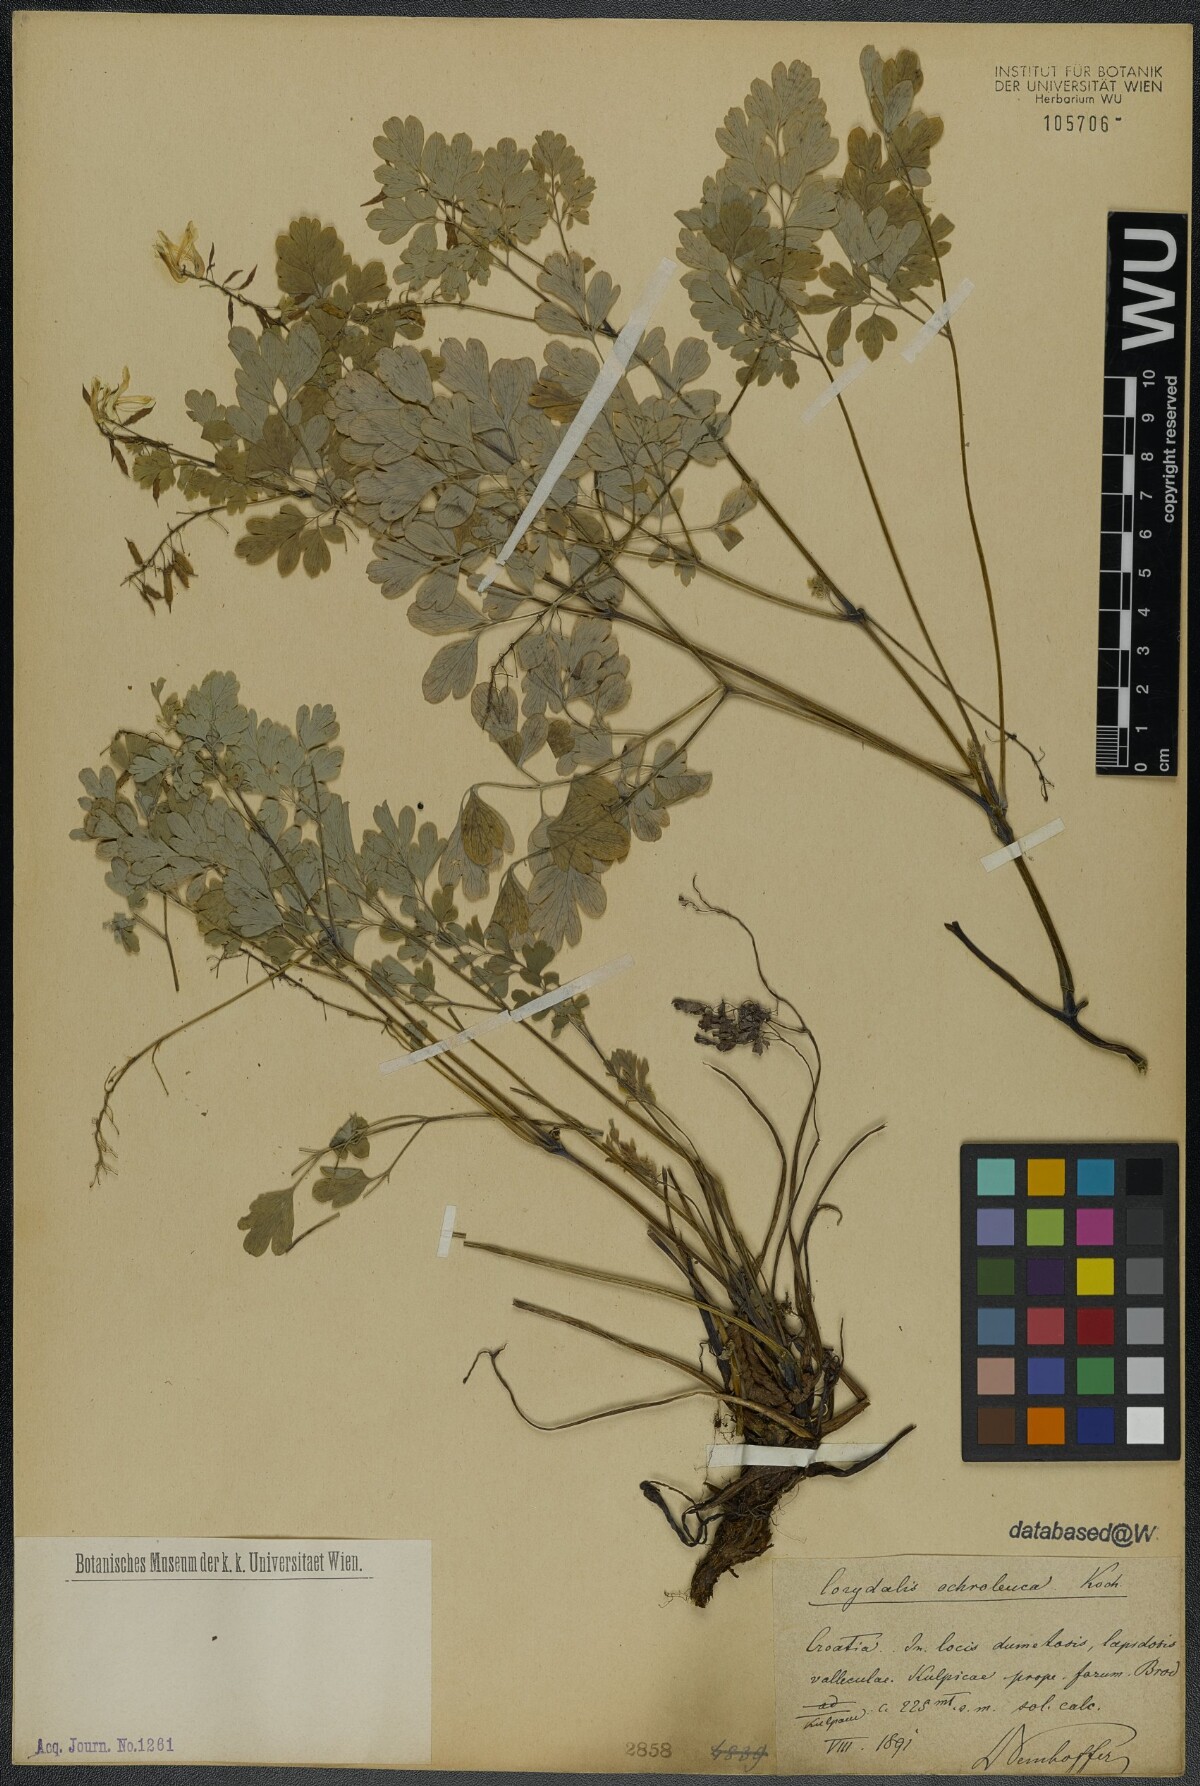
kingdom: Plantae
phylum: Tracheophyta
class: Magnoliopsida
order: Ranunculales
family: Papaveraceae
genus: Pseudofumaria
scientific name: Pseudofumaria alba
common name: Pale corydalis
